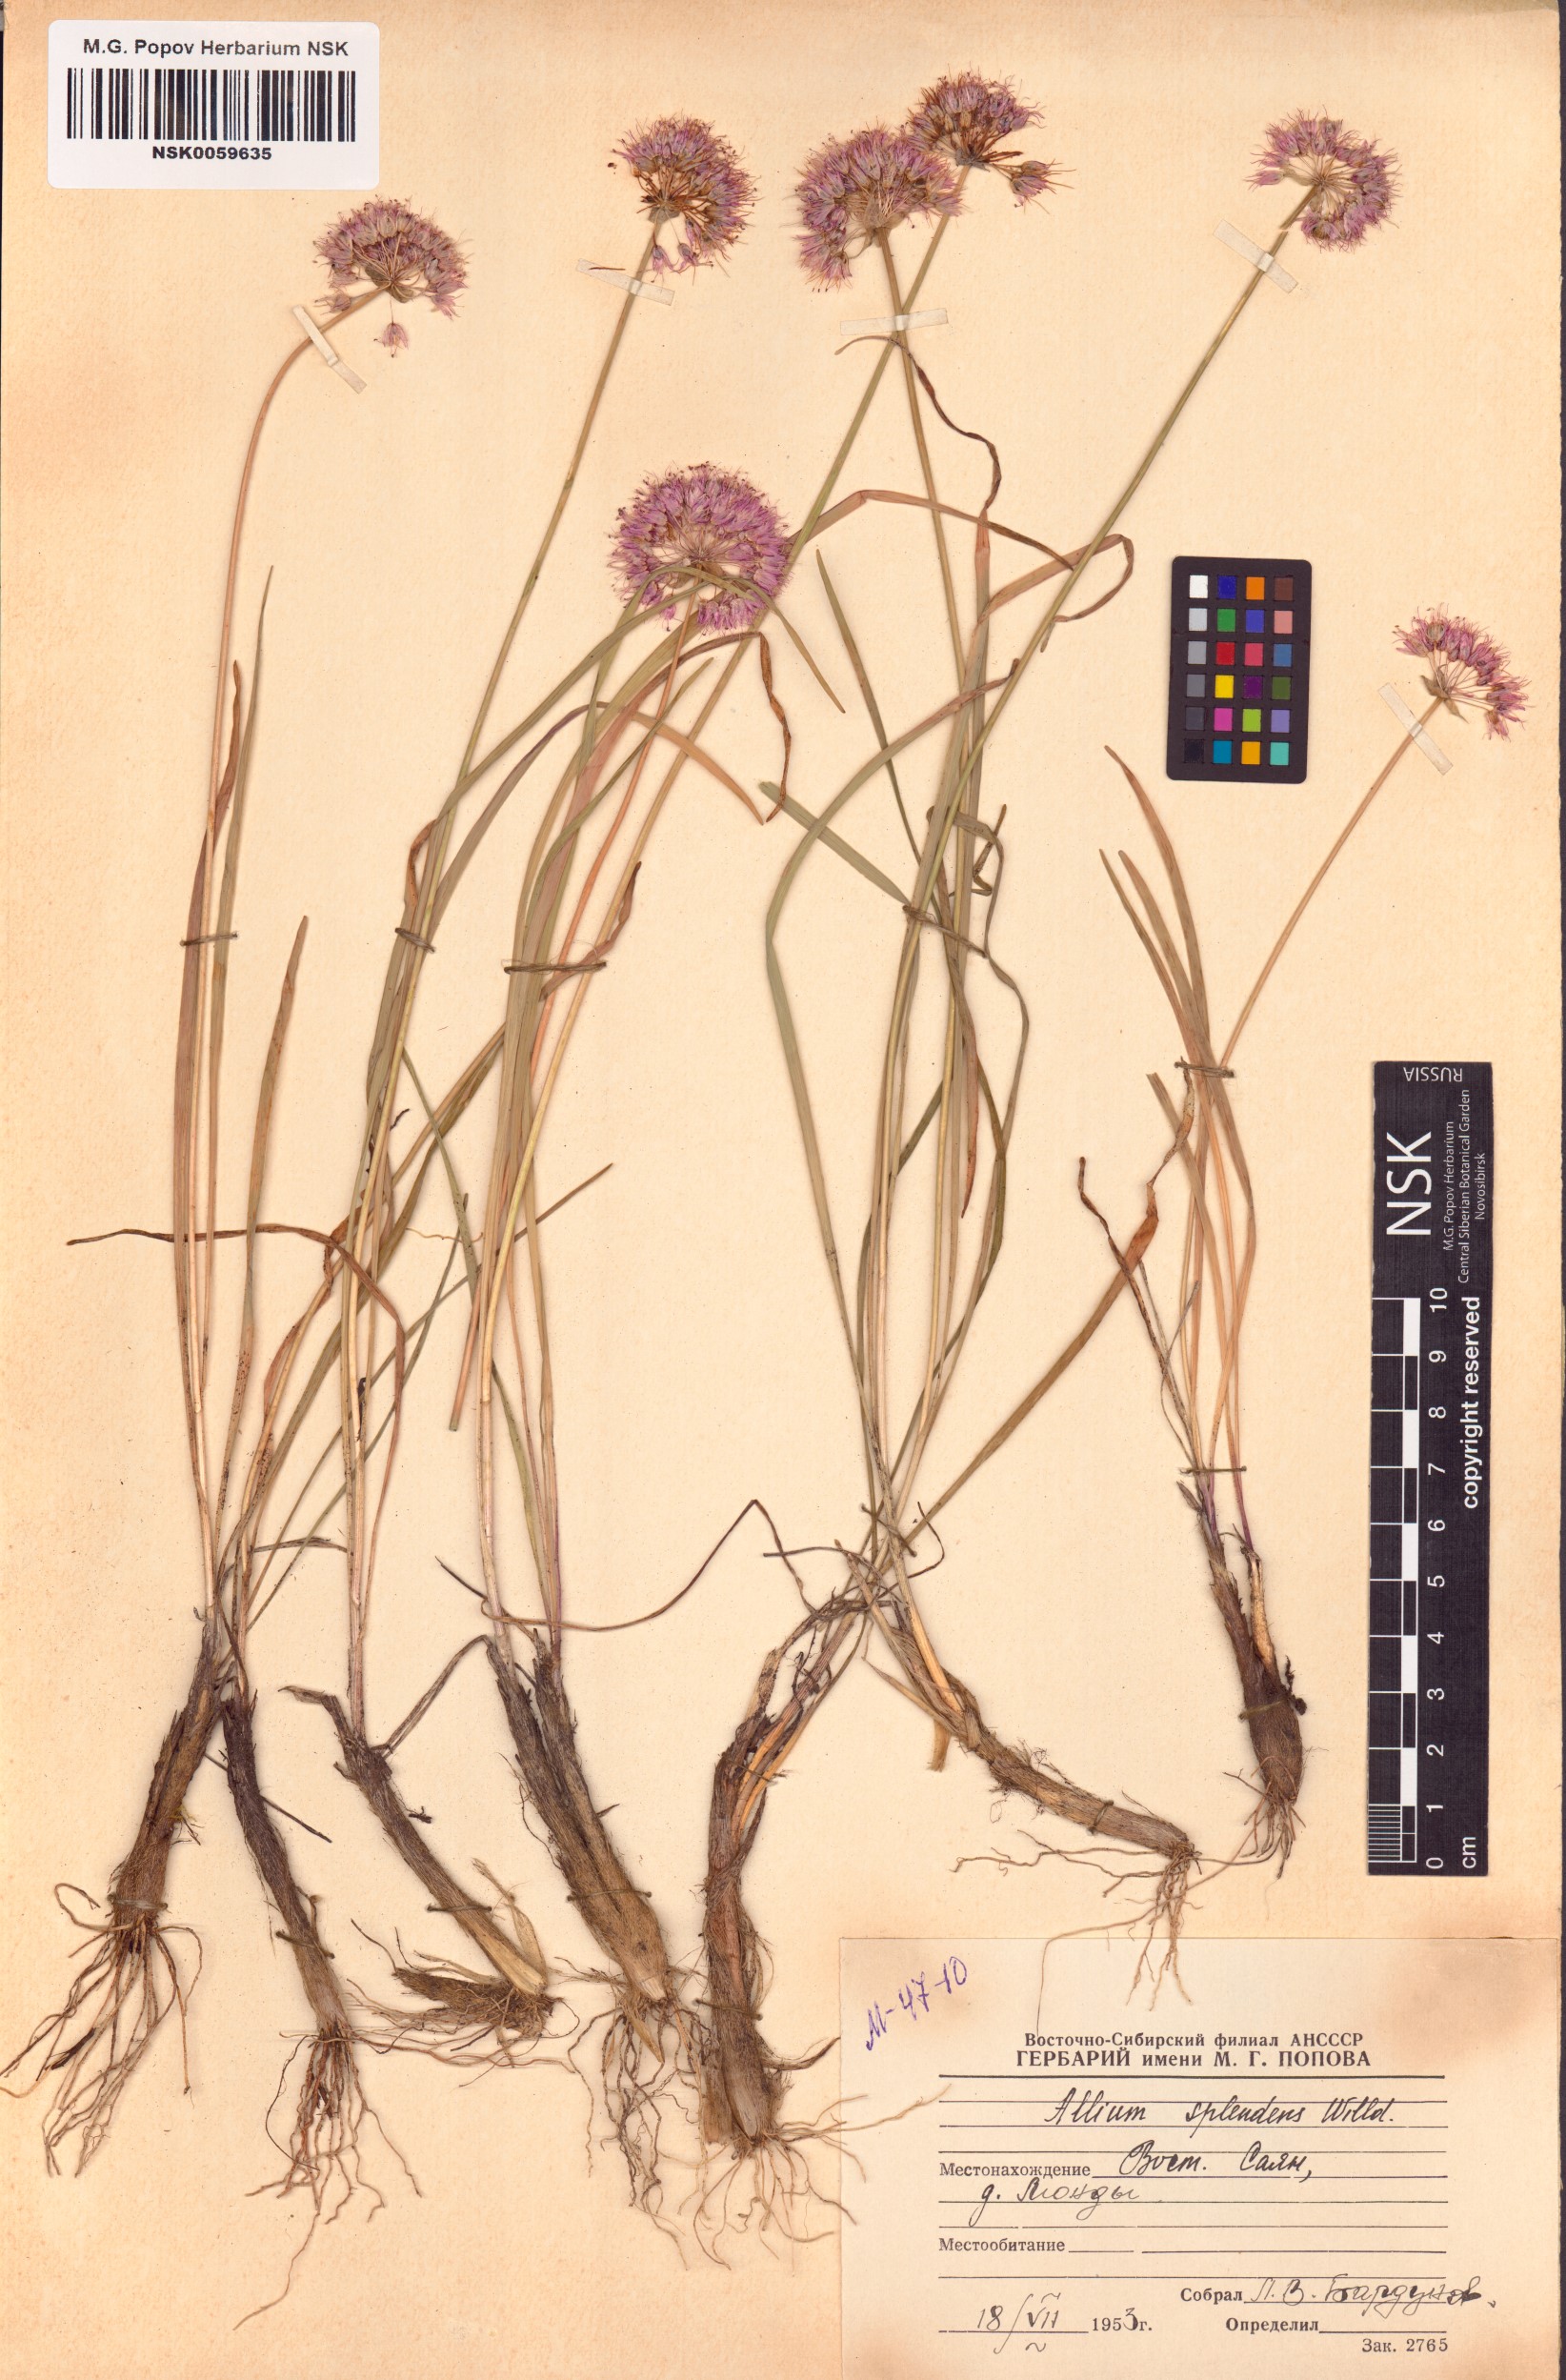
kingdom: Plantae
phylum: Tracheophyta
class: Liliopsida
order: Asparagales
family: Amaryllidaceae
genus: Allium
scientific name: Allium splendens
